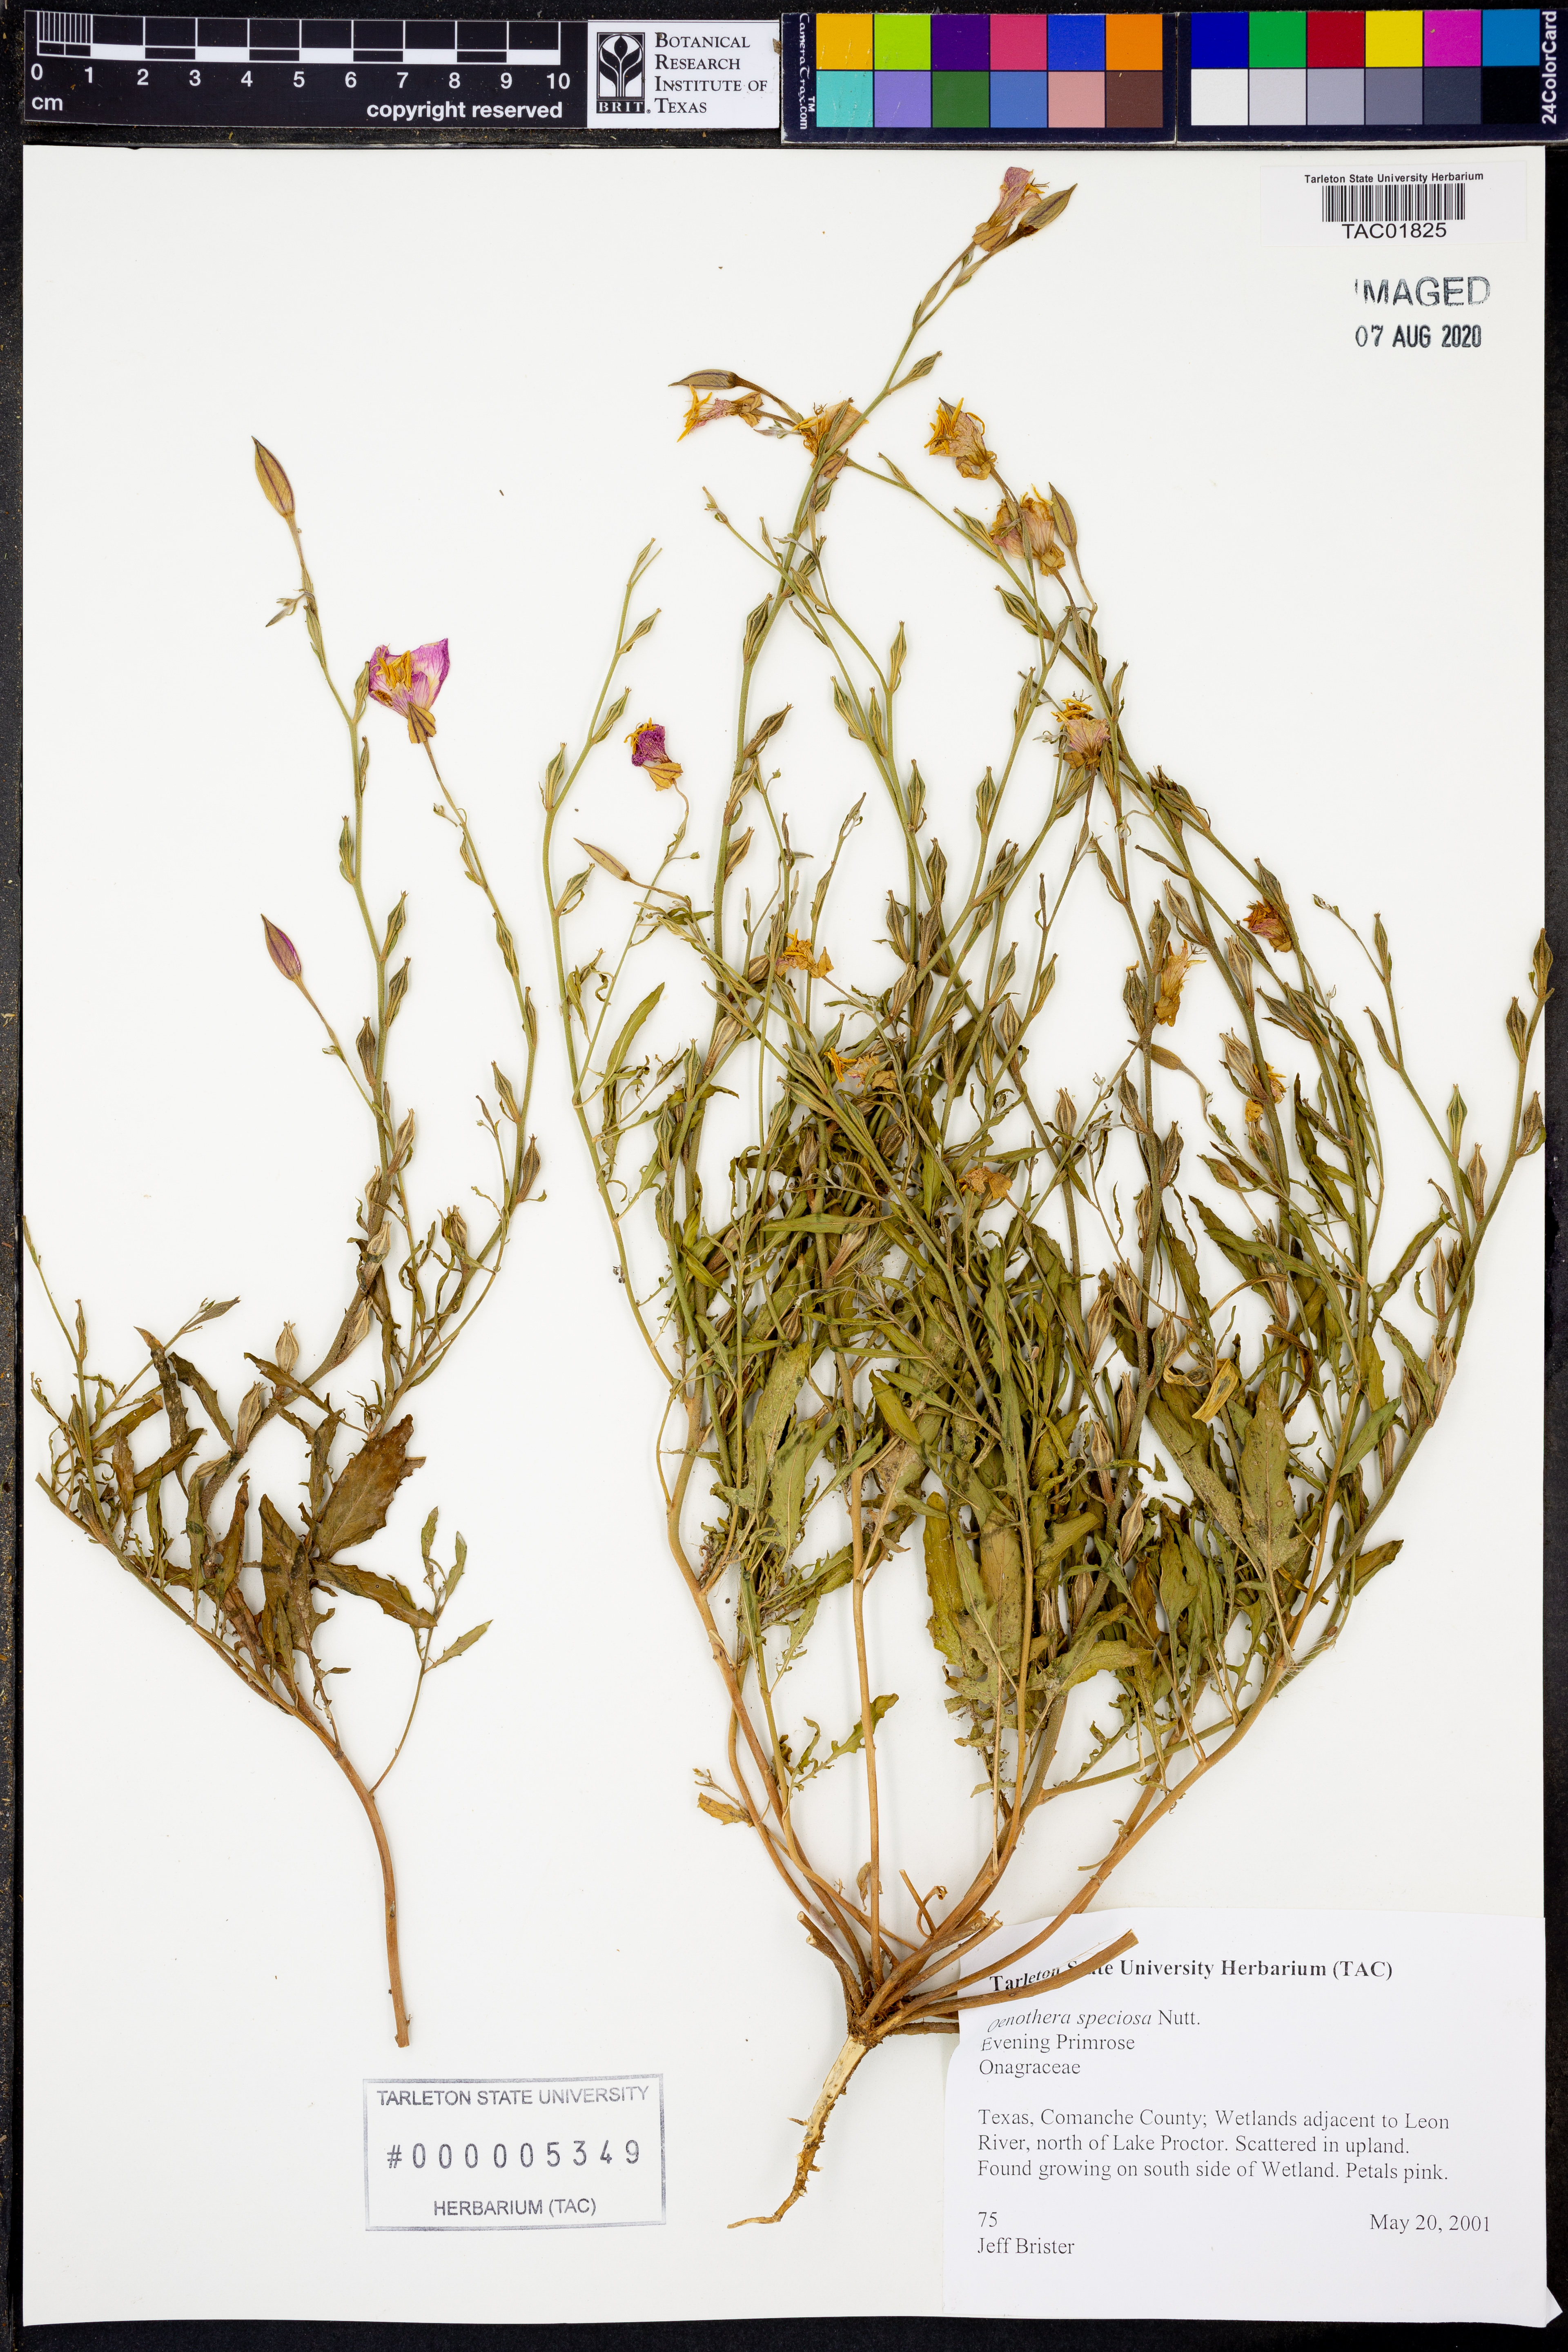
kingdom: Plantae
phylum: Tracheophyta
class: Magnoliopsida
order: Myrtales
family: Onagraceae
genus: Oenothera
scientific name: Oenothera speciosa
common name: White evening-primrose
